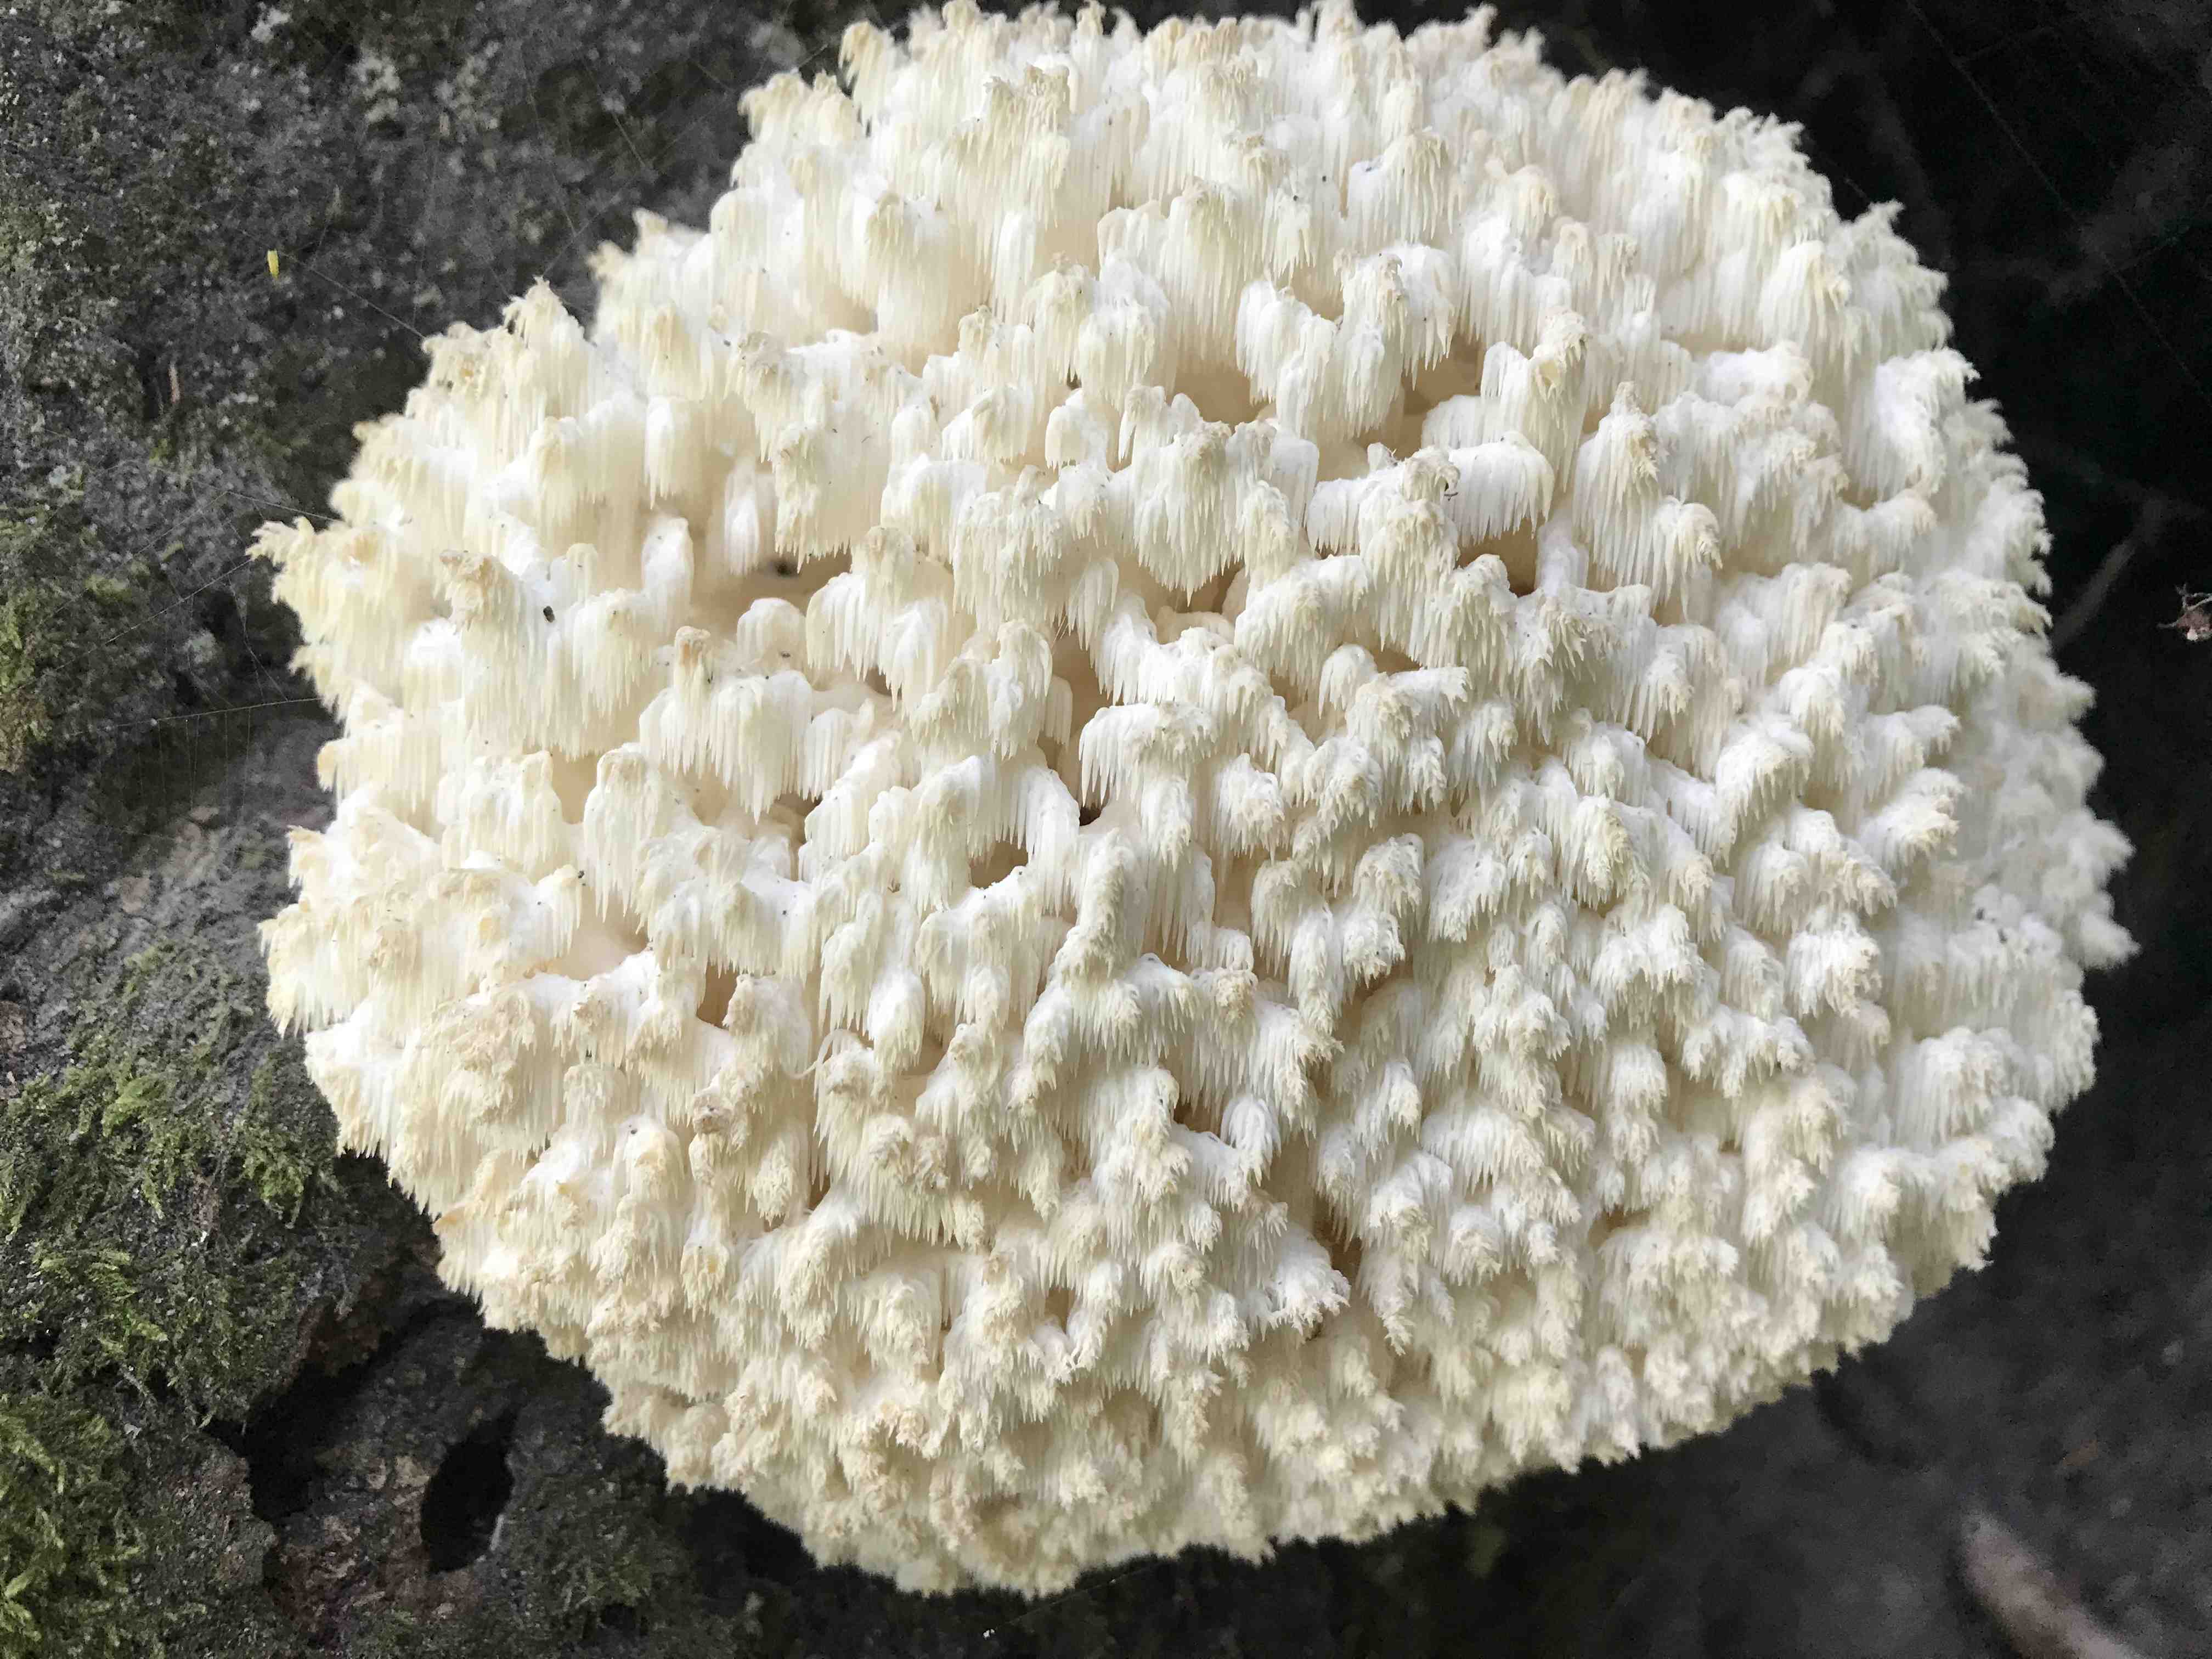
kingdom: Fungi
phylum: Basidiomycota
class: Agaricomycetes
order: Russulales
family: Hericiaceae
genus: Hericium
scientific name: Hericium coralloides
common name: koralpigsvamp
